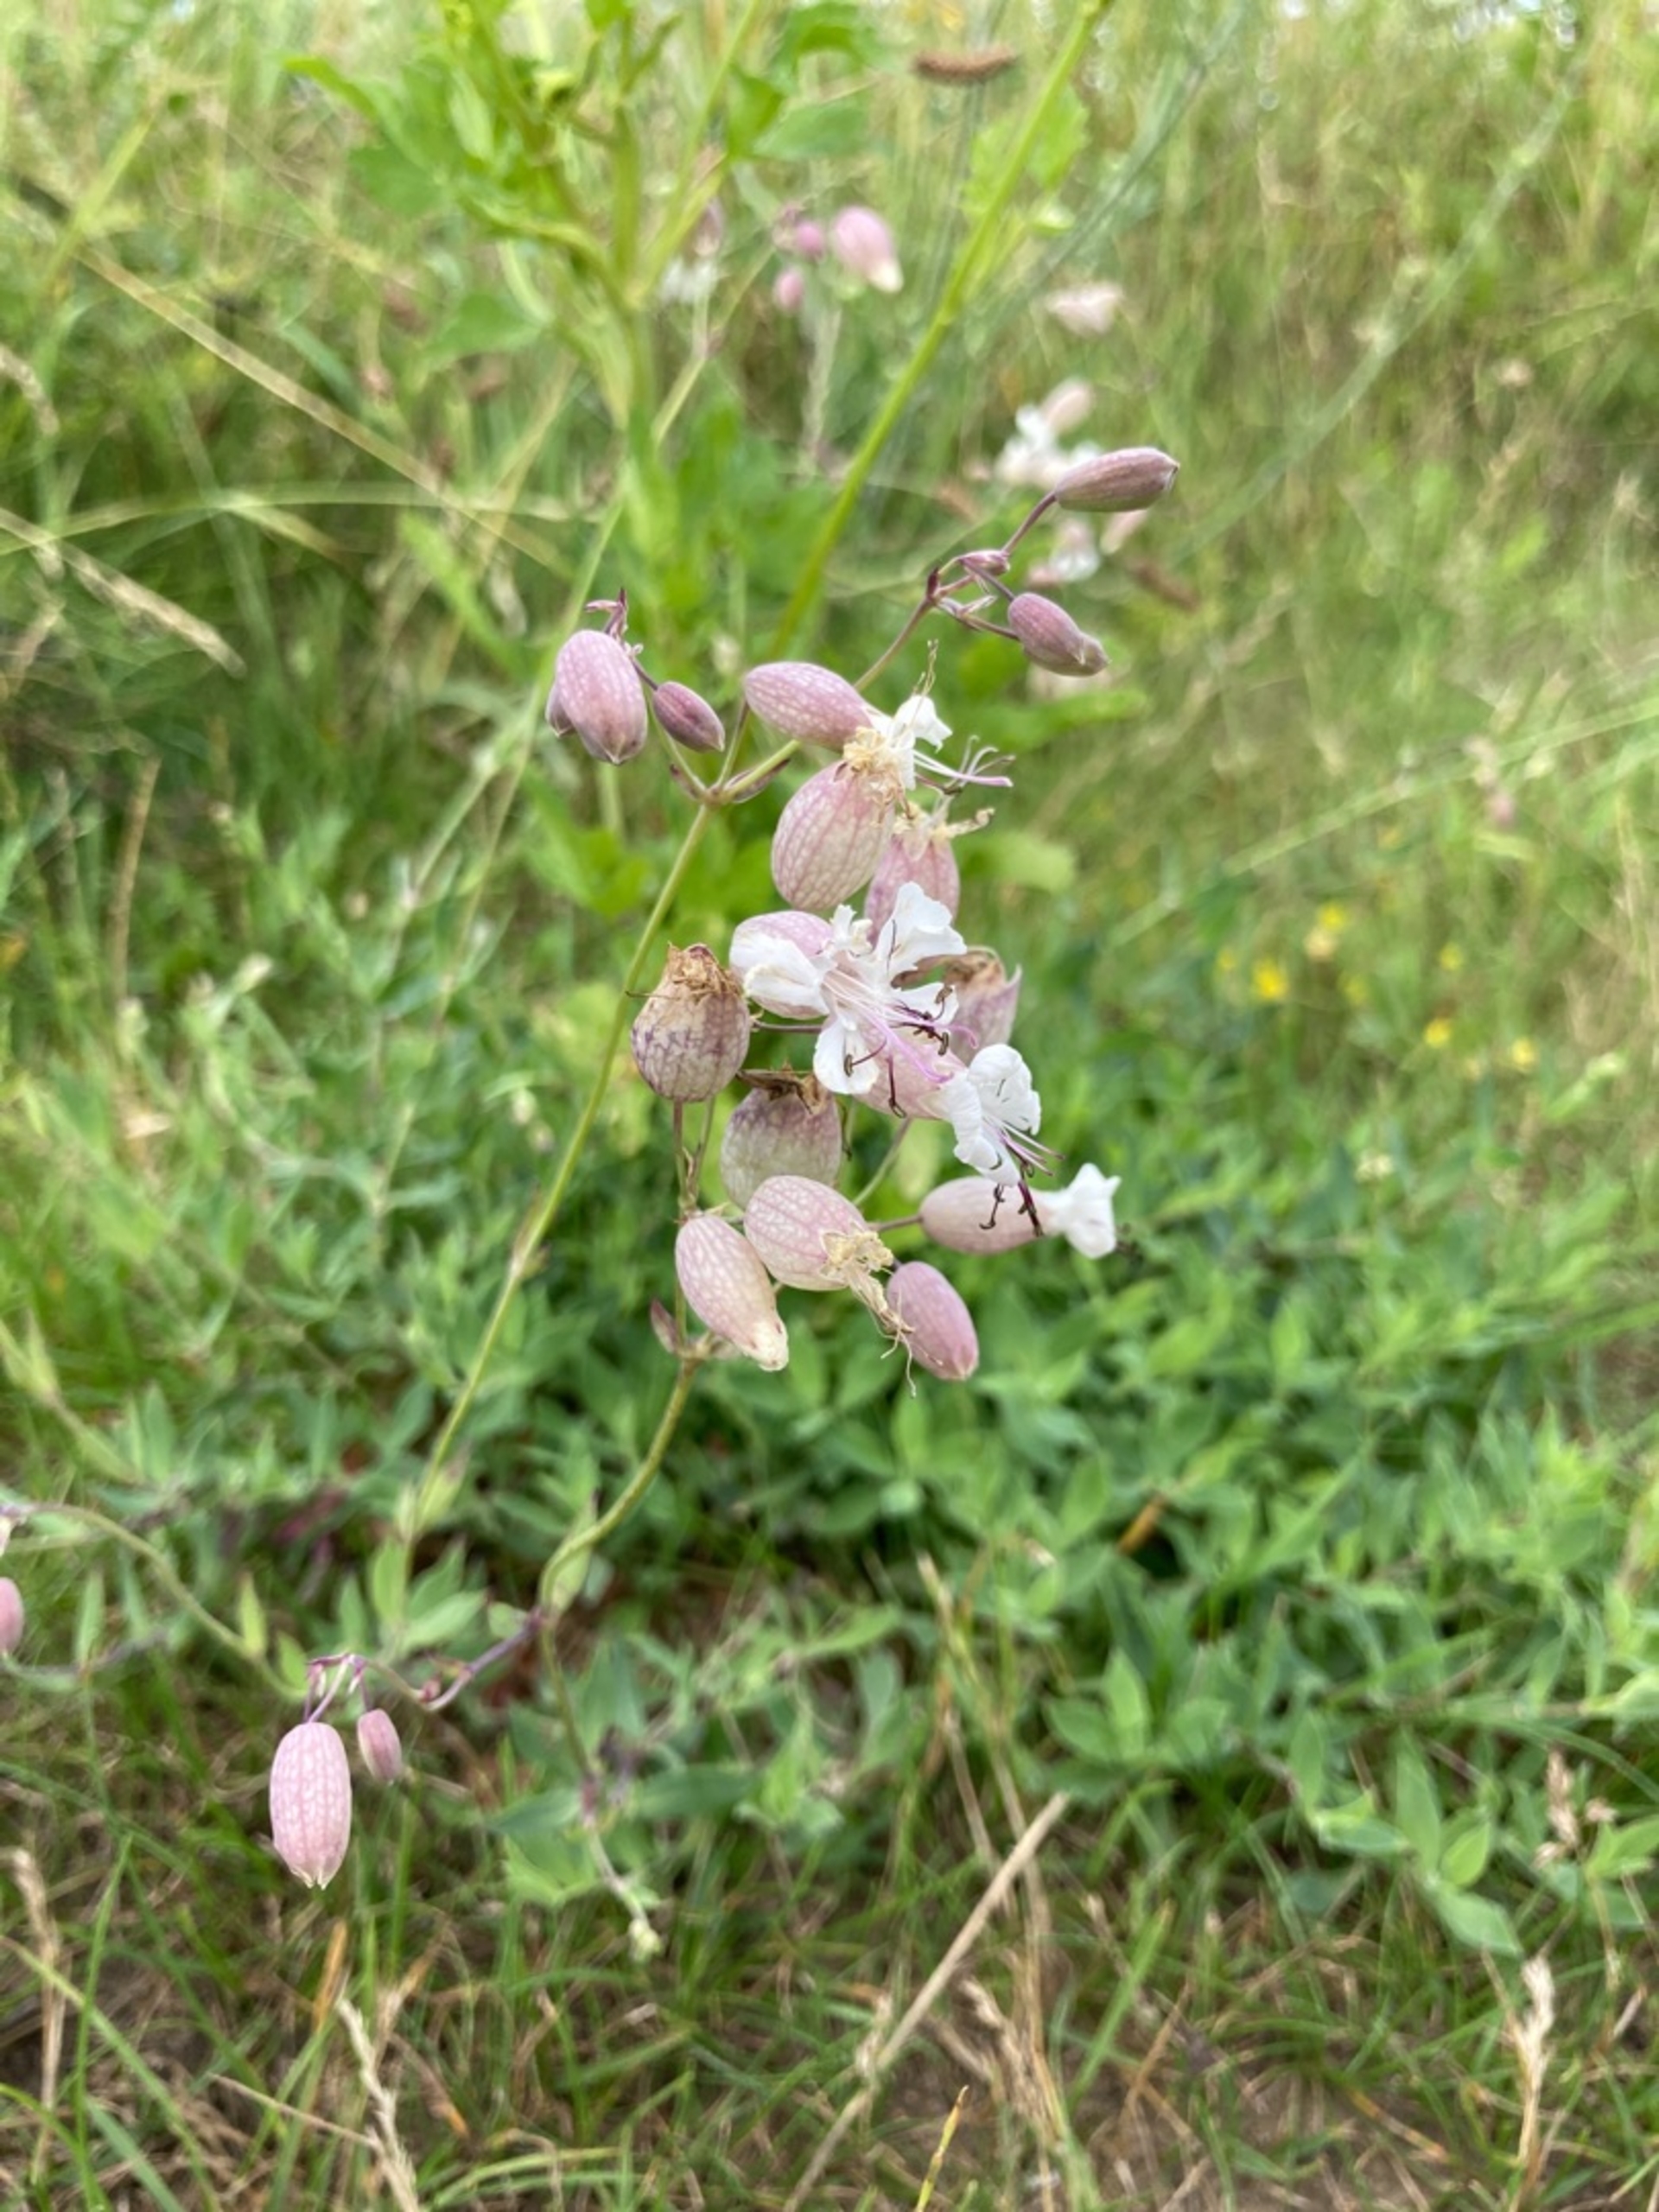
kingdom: Plantae
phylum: Tracheophyta
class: Magnoliopsida
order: Caryophyllales
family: Caryophyllaceae
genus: Silene
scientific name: Silene vulgaris
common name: Blæresmælde
